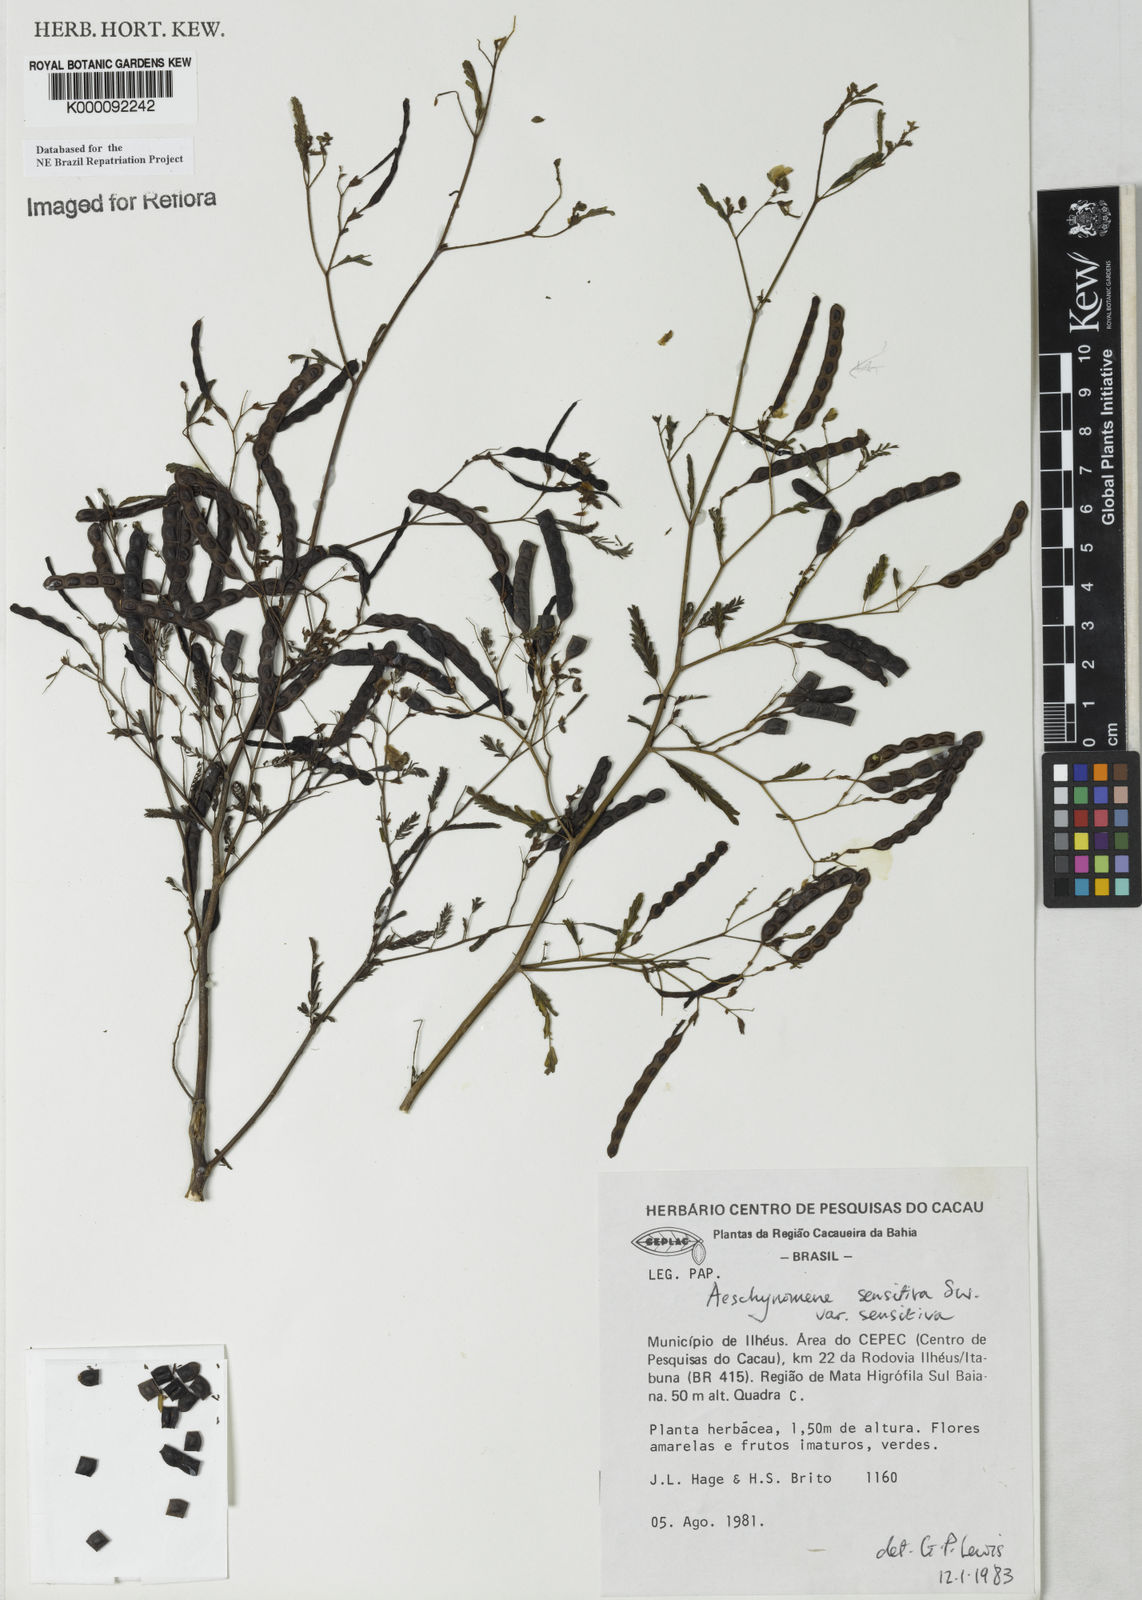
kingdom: Plantae
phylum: Tracheophyta
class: Magnoliopsida
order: Fabales
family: Fabaceae
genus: Aeschynomene
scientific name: Aeschynomene sensitiva
